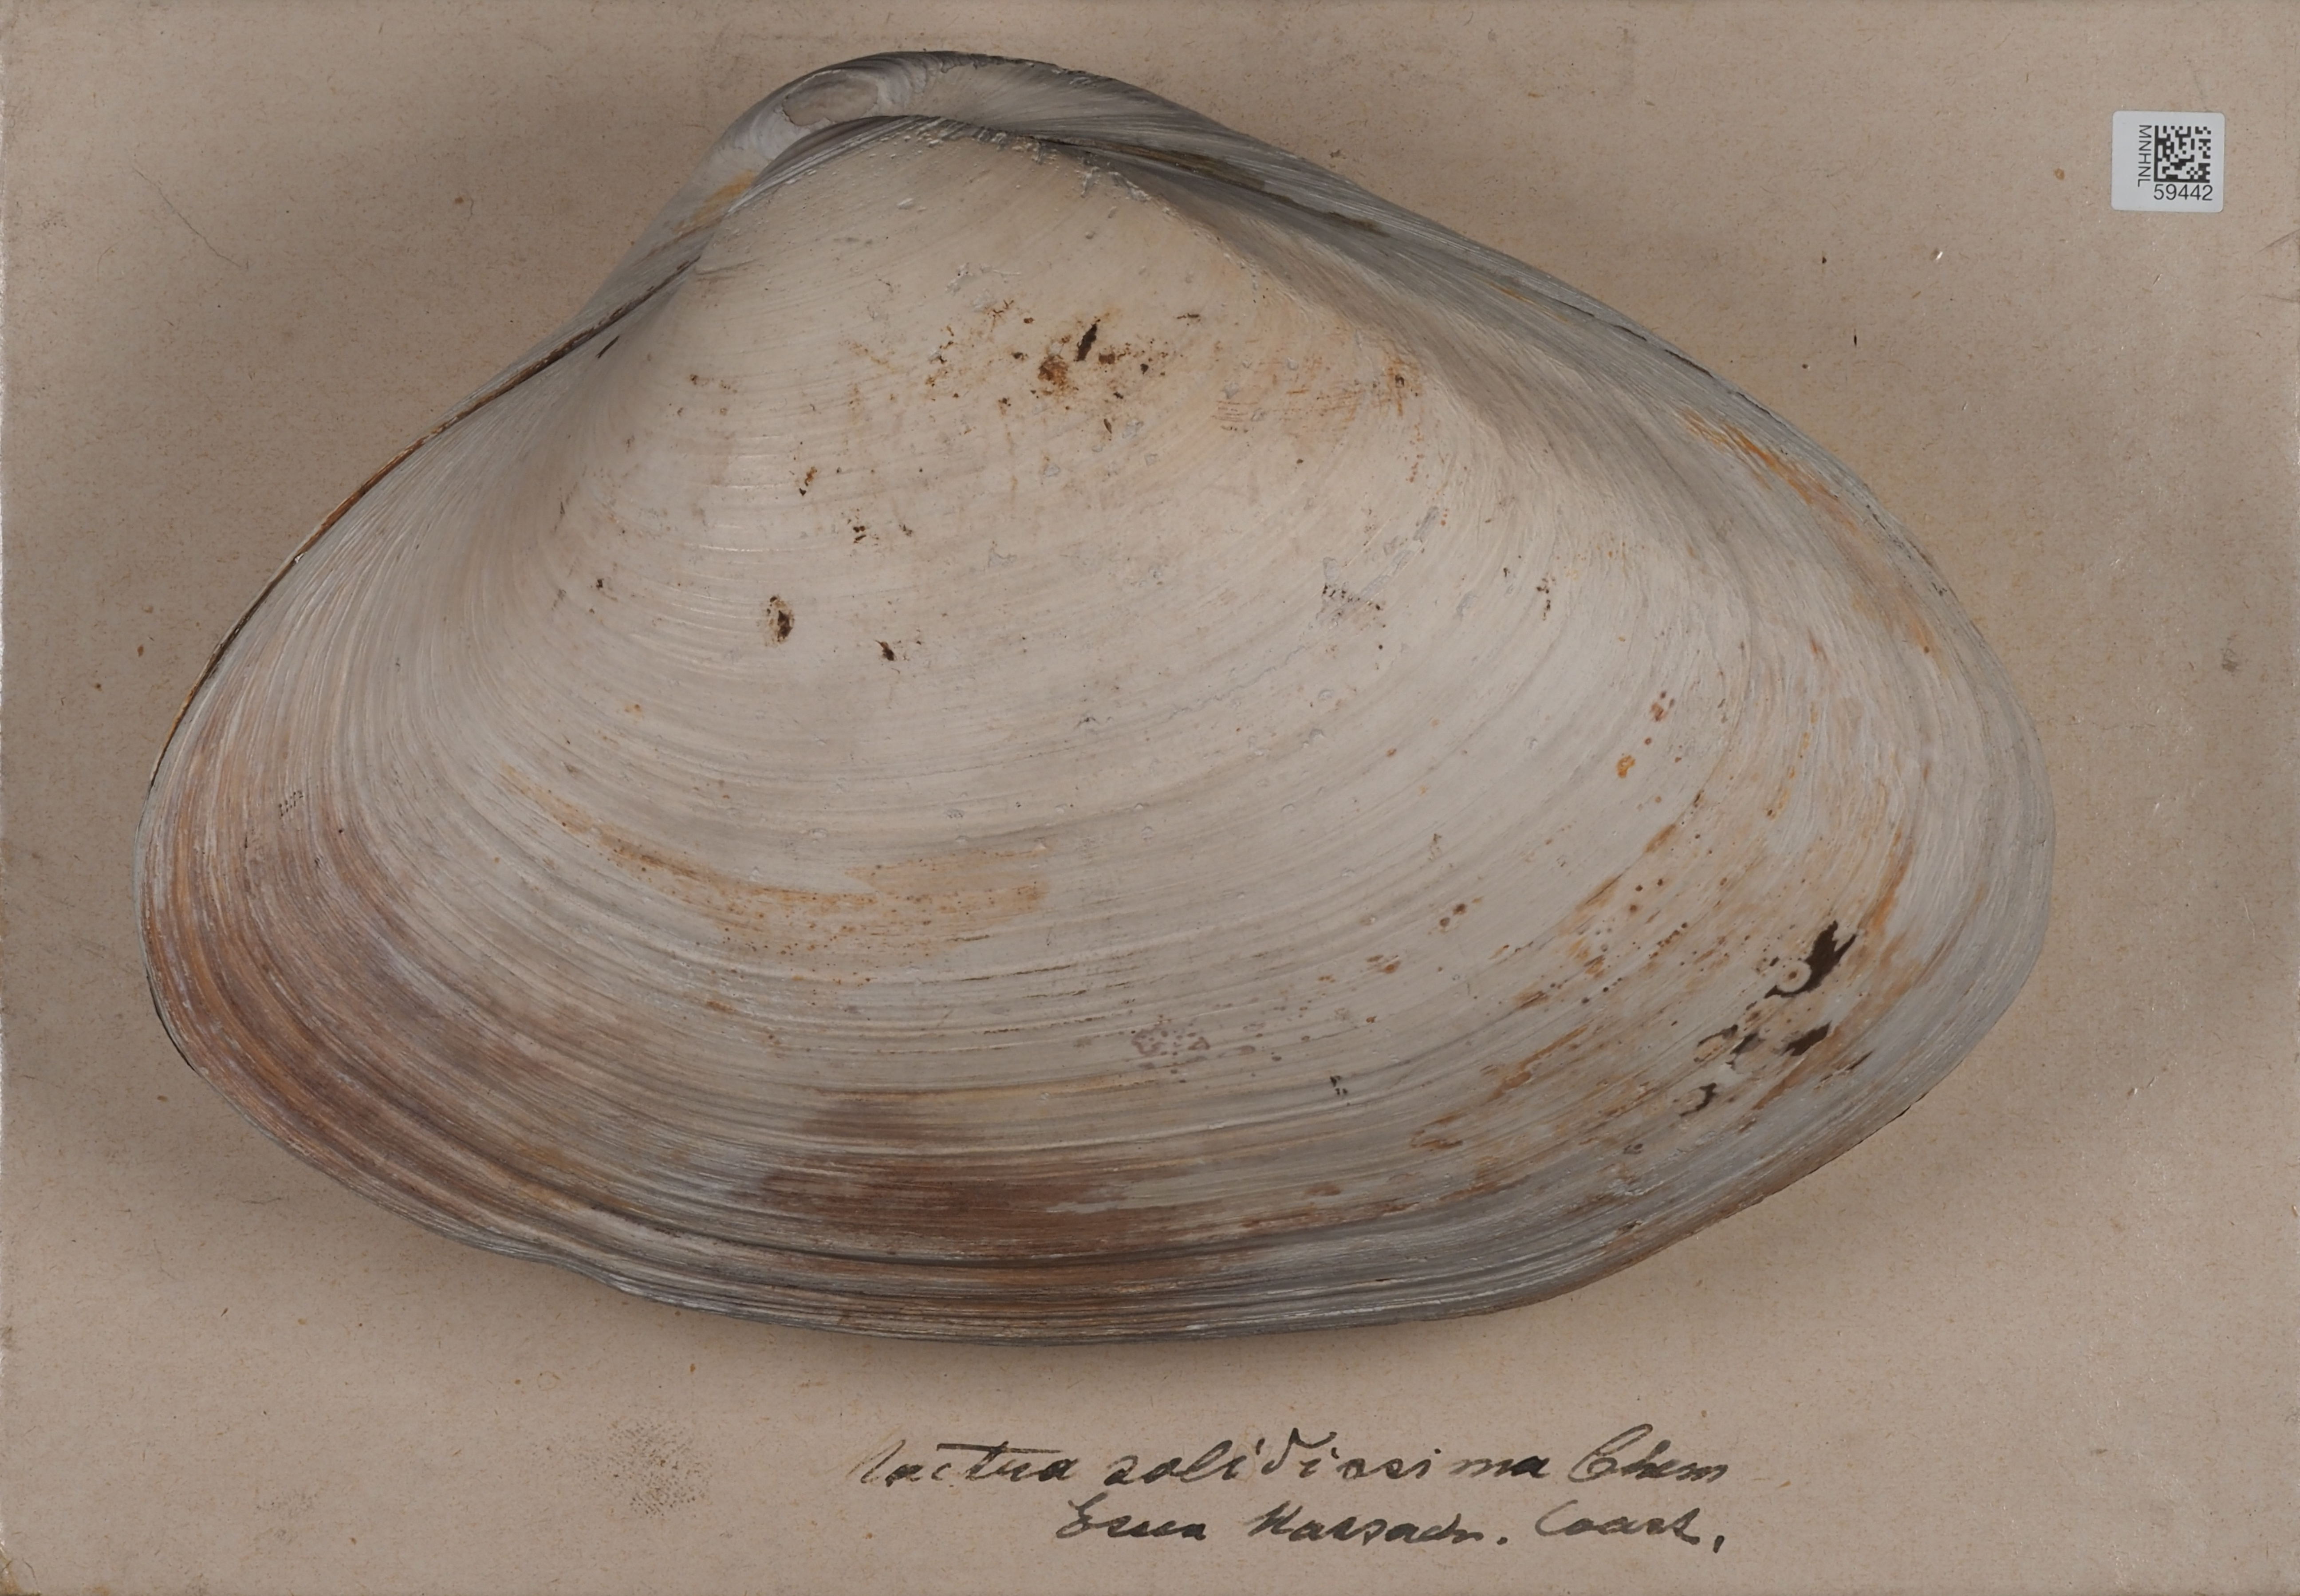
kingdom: Animalia
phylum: Mollusca
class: Bivalvia
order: Venerida
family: Mactridae
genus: Spisula
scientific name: Spisula solidissima
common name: Atlantic surf clam
